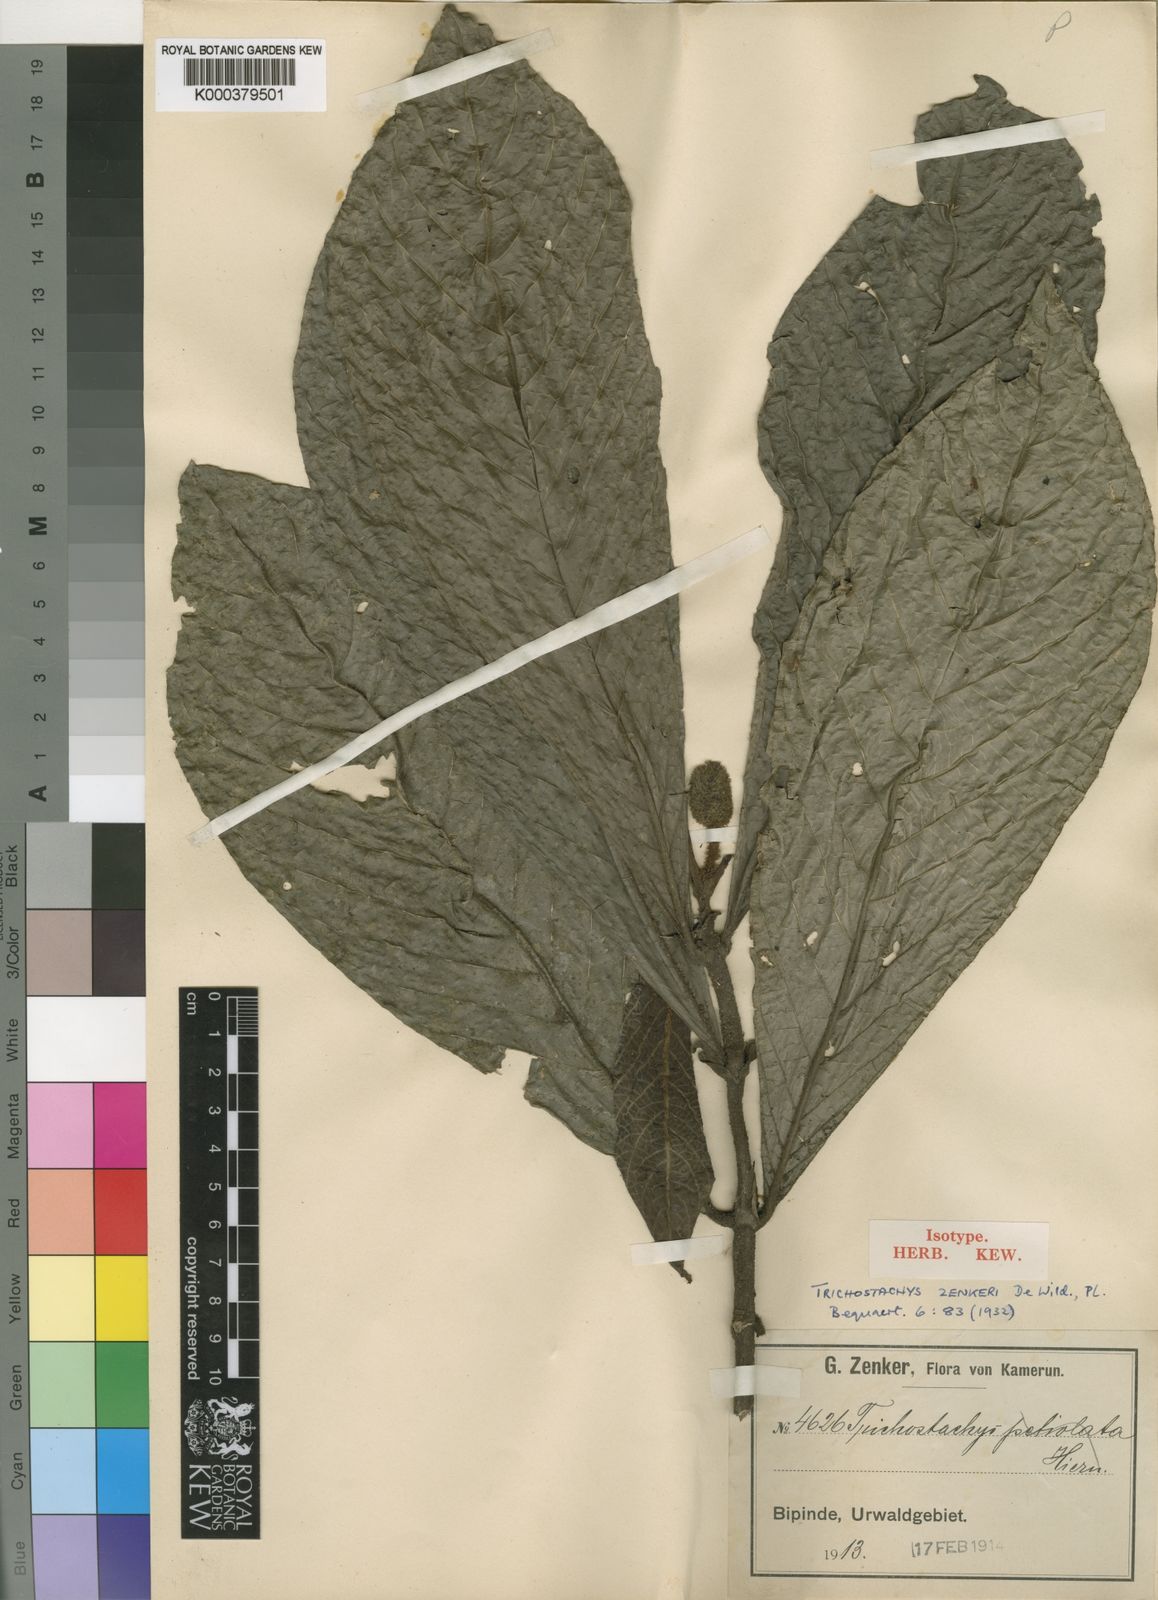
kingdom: Plantae
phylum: Tracheophyta
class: Magnoliopsida
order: Gentianales
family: Rubiaceae
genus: Trichostachys
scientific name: Trichostachys aurea
